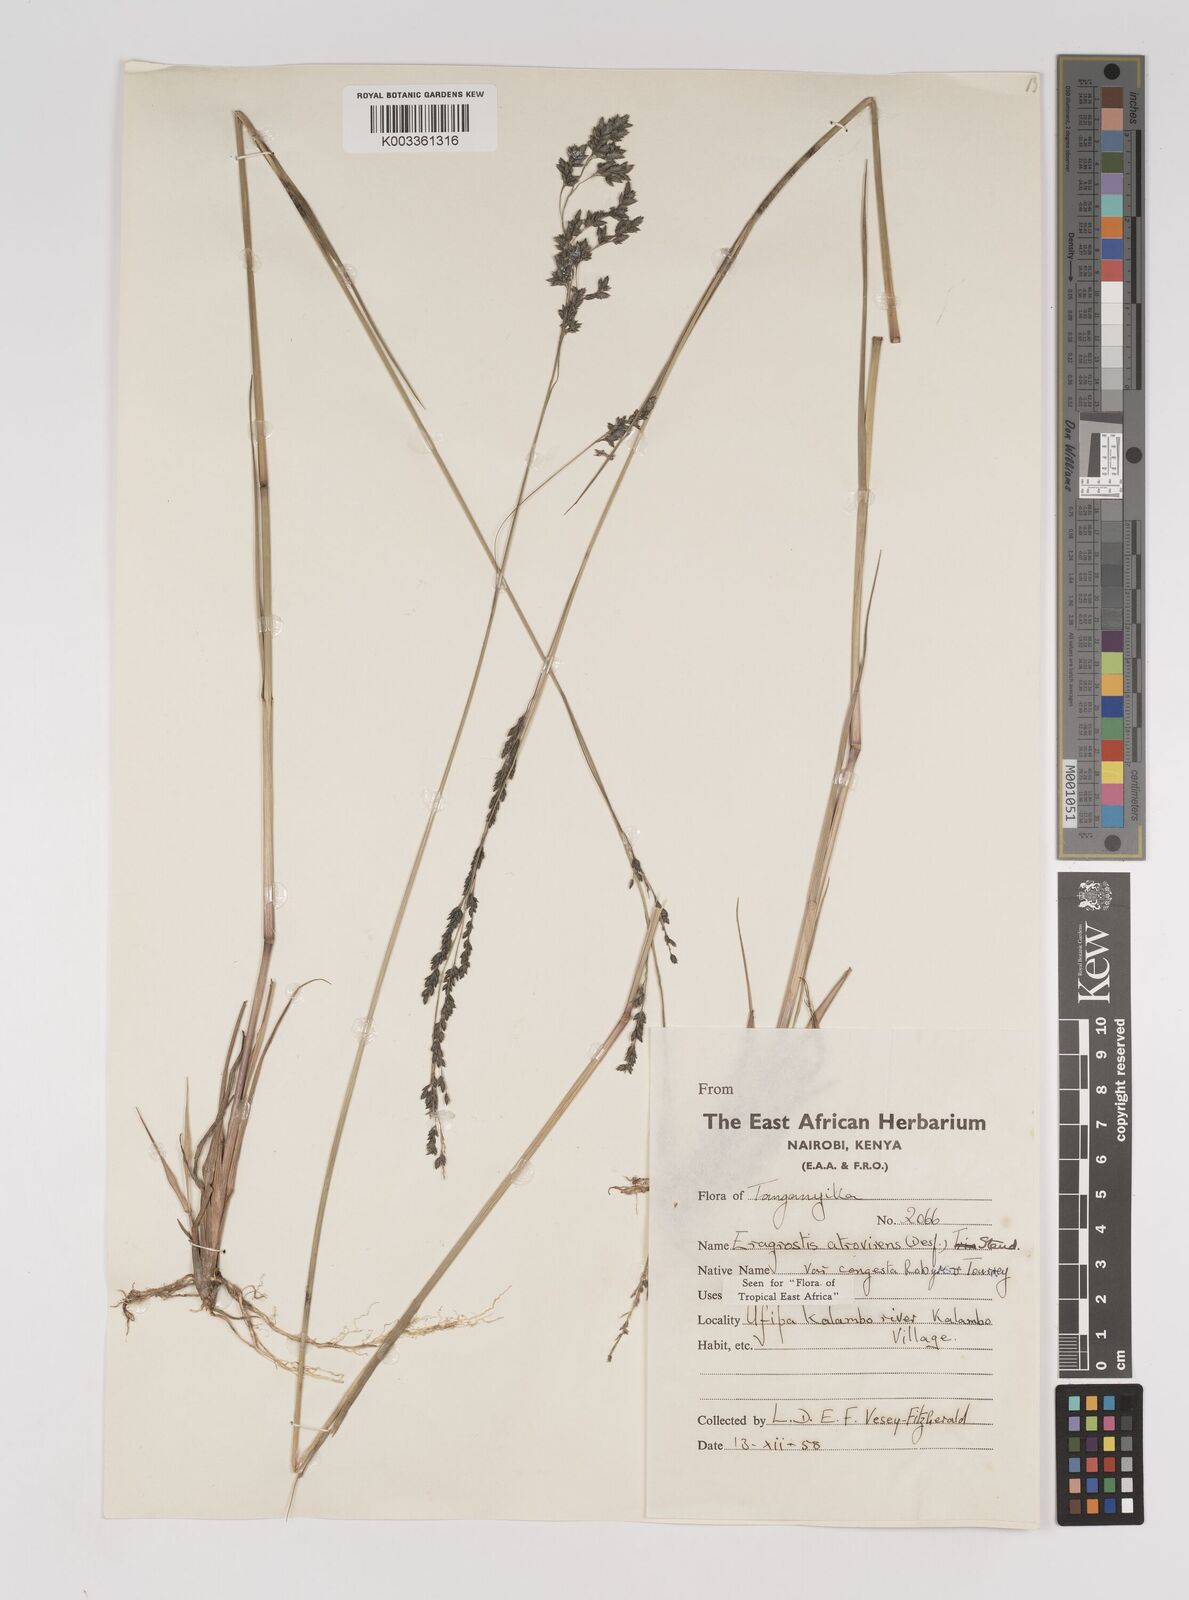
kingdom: Plantae
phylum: Tracheophyta
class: Liliopsida
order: Poales
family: Poaceae
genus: Eragrostis
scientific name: Eragrostis botryodes
